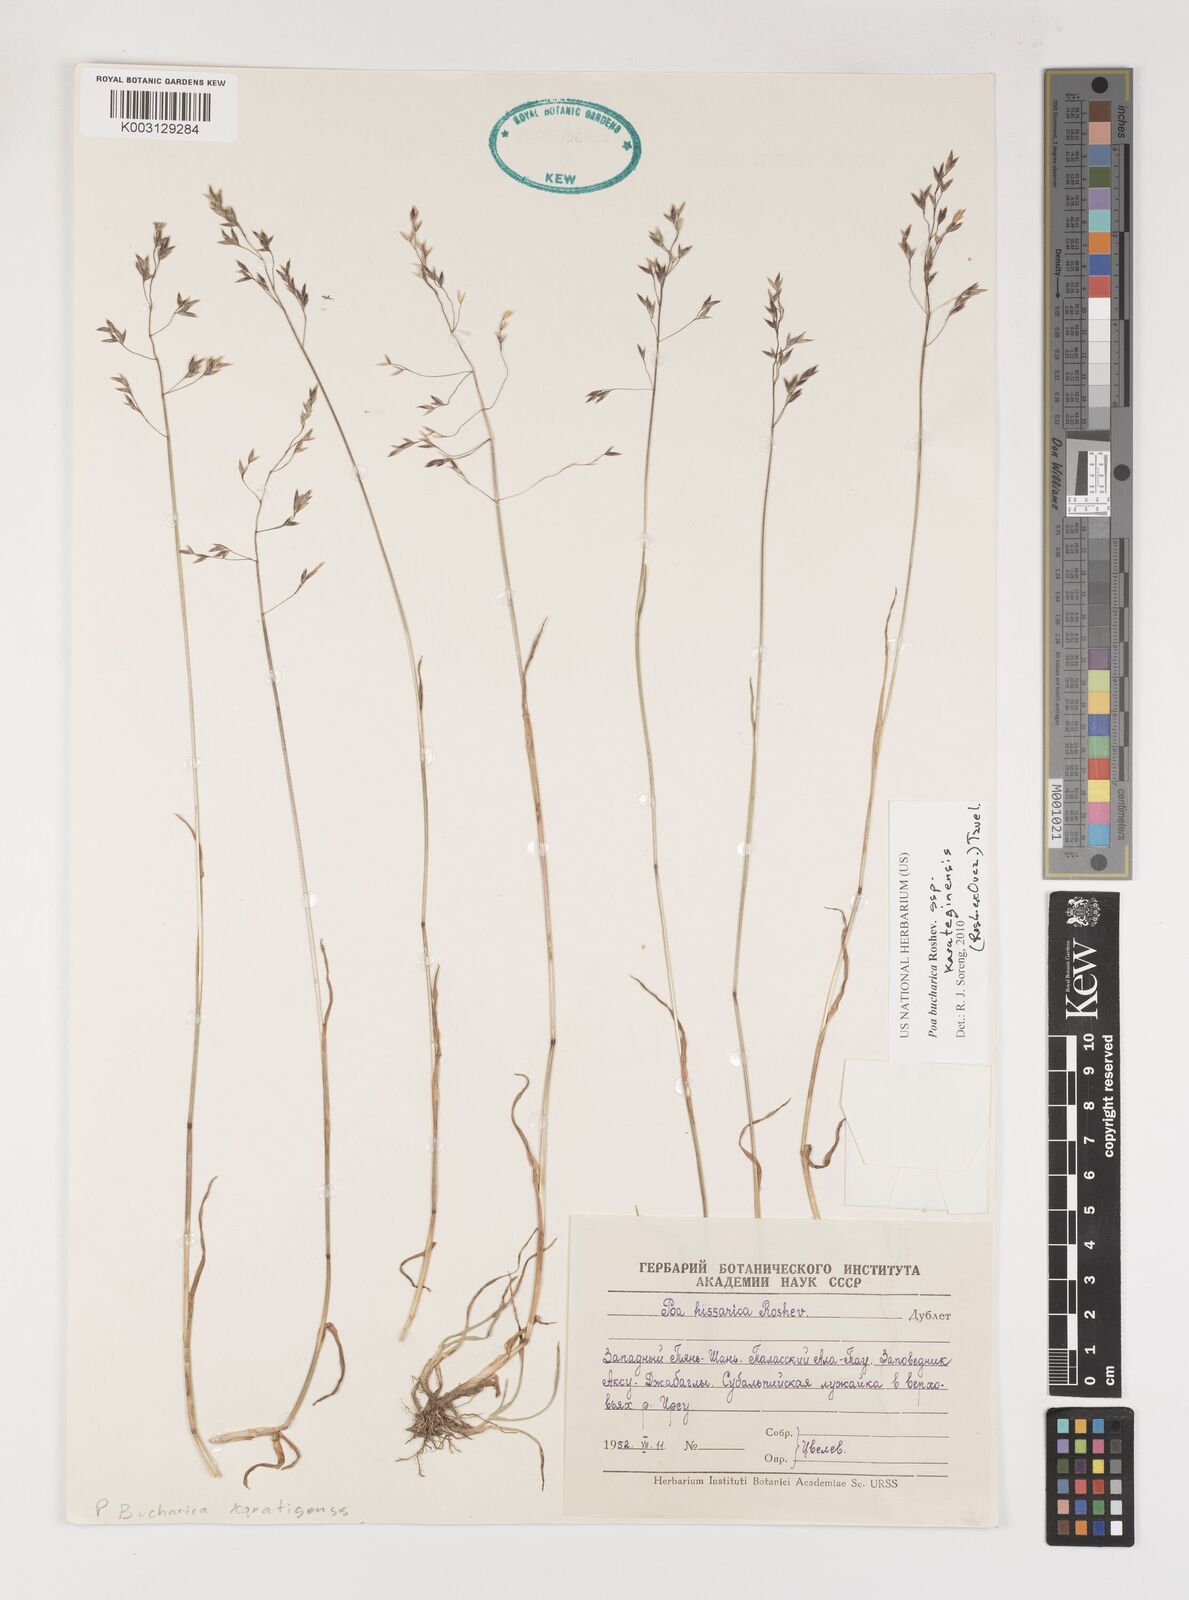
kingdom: Plantae
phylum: Tracheophyta
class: Liliopsida
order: Poales
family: Poaceae
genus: Poa
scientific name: Poa bucharica
